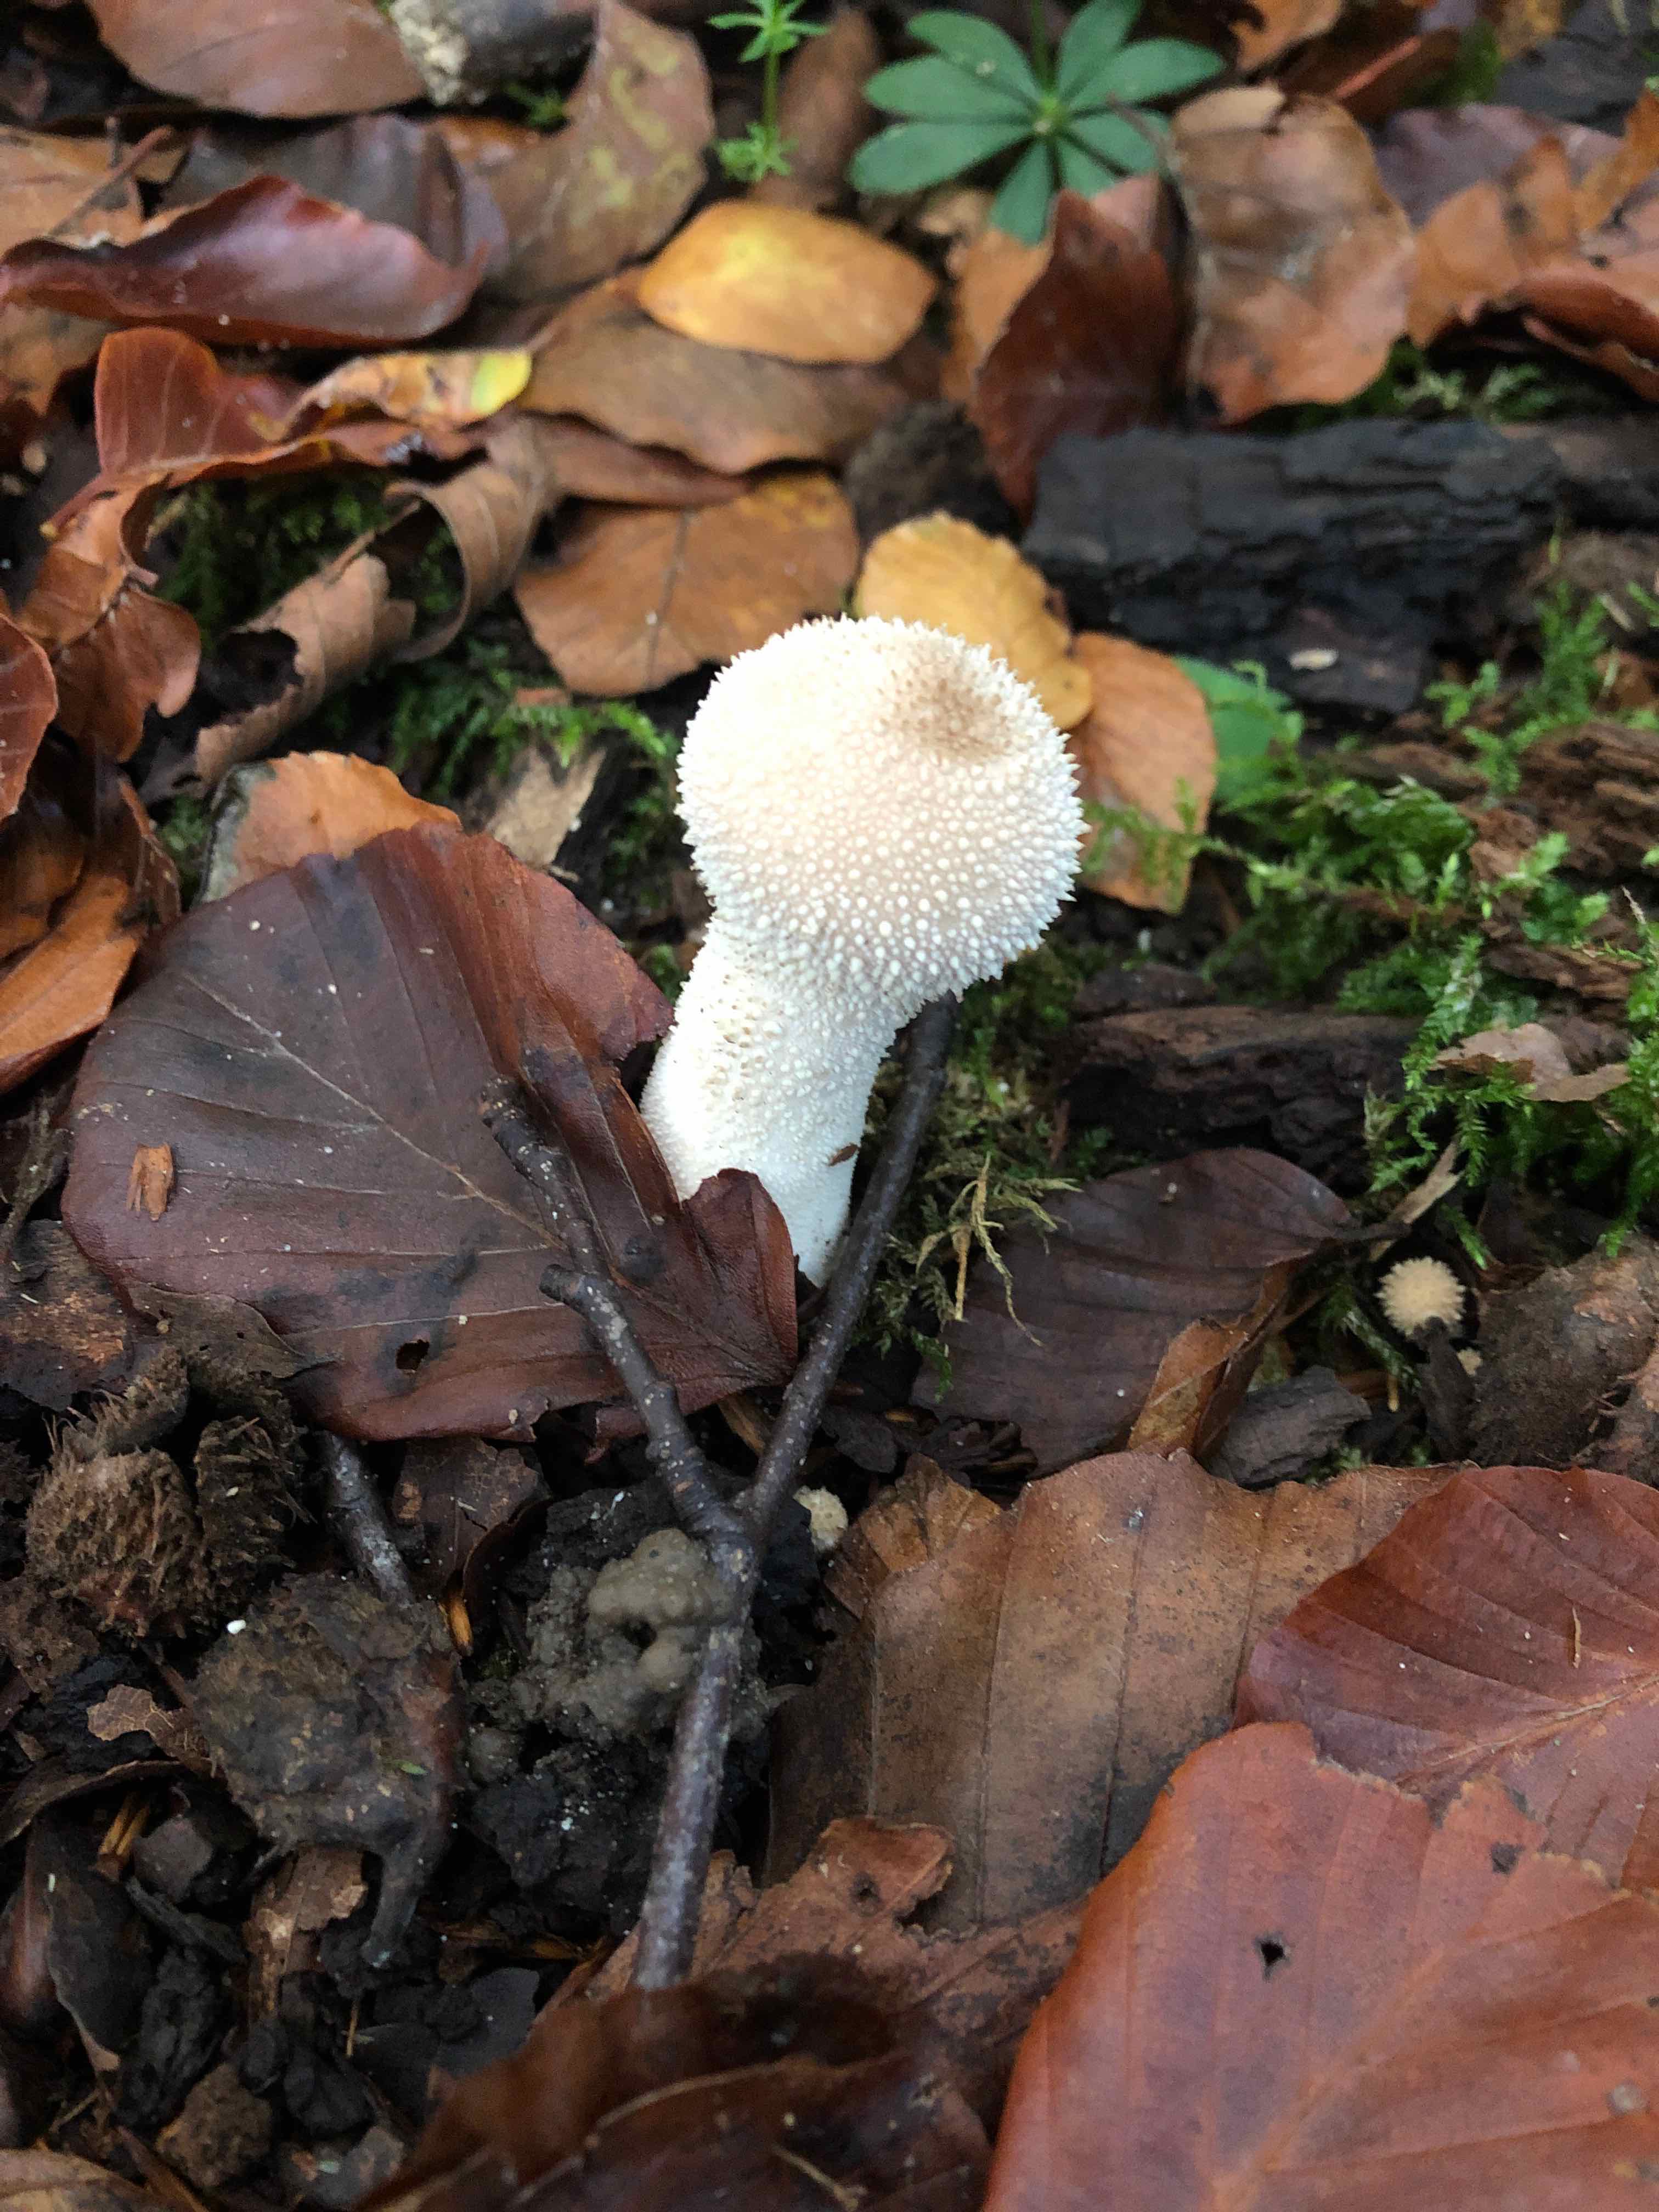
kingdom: Fungi
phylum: Basidiomycota
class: Agaricomycetes
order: Agaricales
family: Lycoperdaceae
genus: Lycoperdon
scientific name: Lycoperdon perlatum
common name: krystal-støvbold
